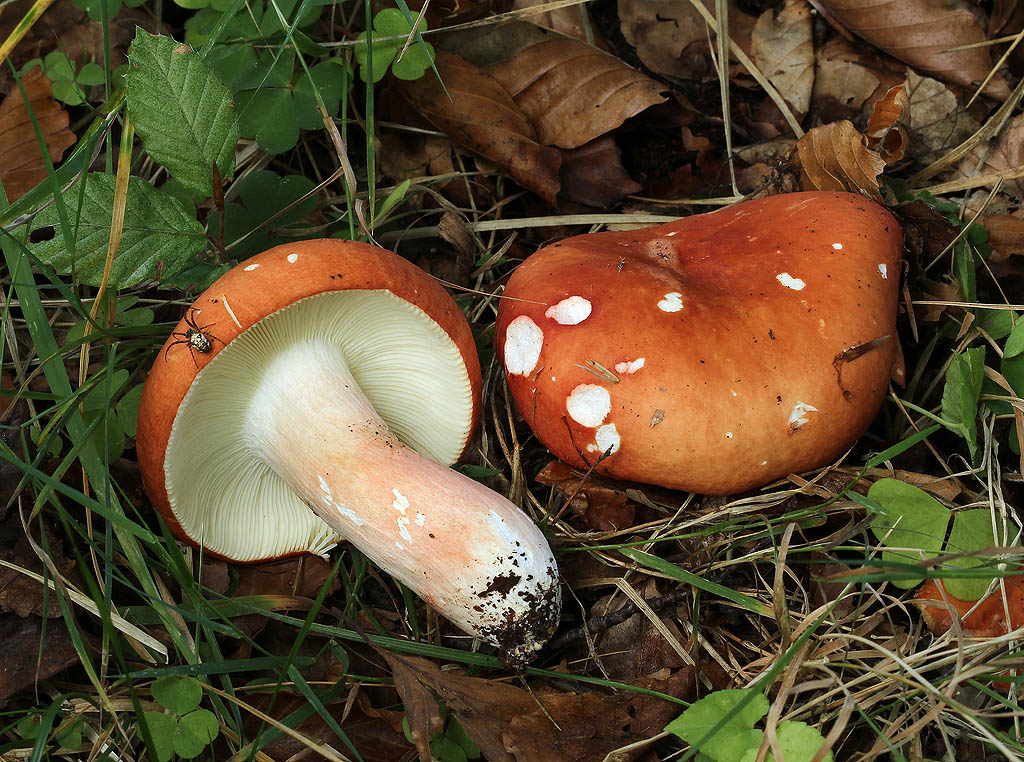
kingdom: Fungi
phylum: Basidiomycota
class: Agaricomycetes
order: Russulales
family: Russulaceae
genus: Russula
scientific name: Russula rosea
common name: fastkødet skørhat
